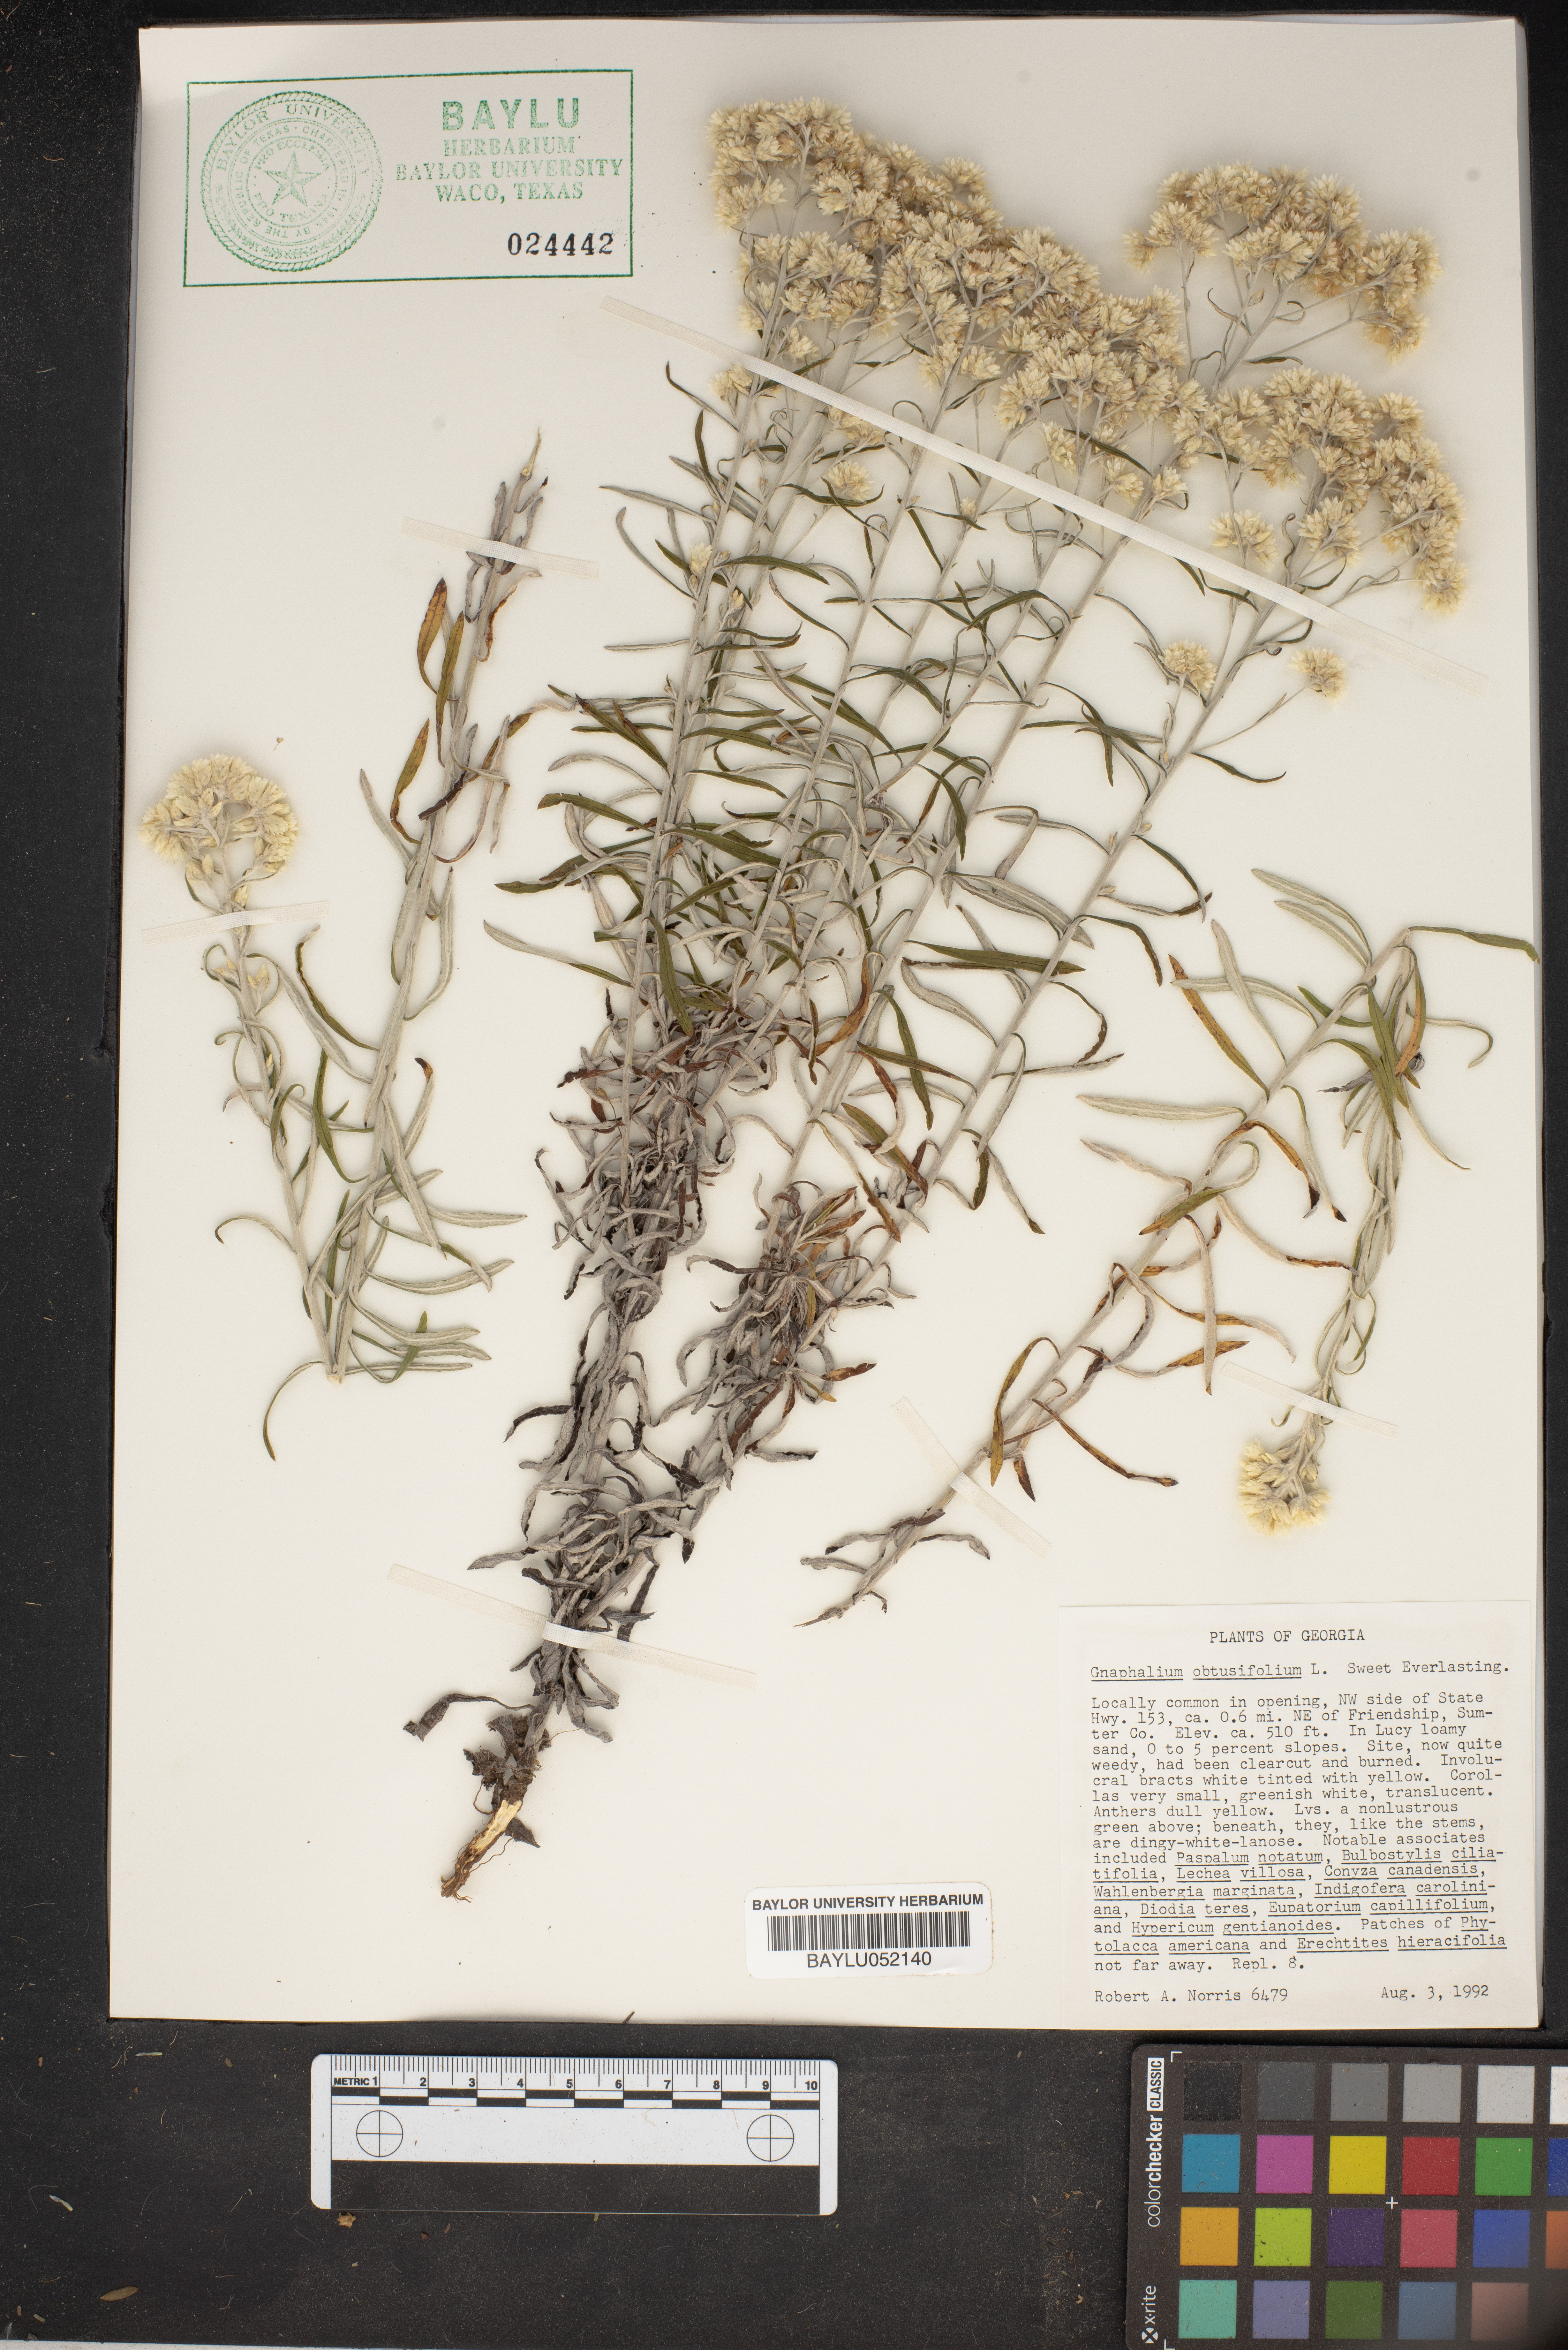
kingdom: Plantae
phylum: Tracheophyta
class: Magnoliopsida
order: Asterales
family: Asteraceae
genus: Pseudognaphalium
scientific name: Pseudognaphalium obtusifolium
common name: Eastern rabbit-tobacco
